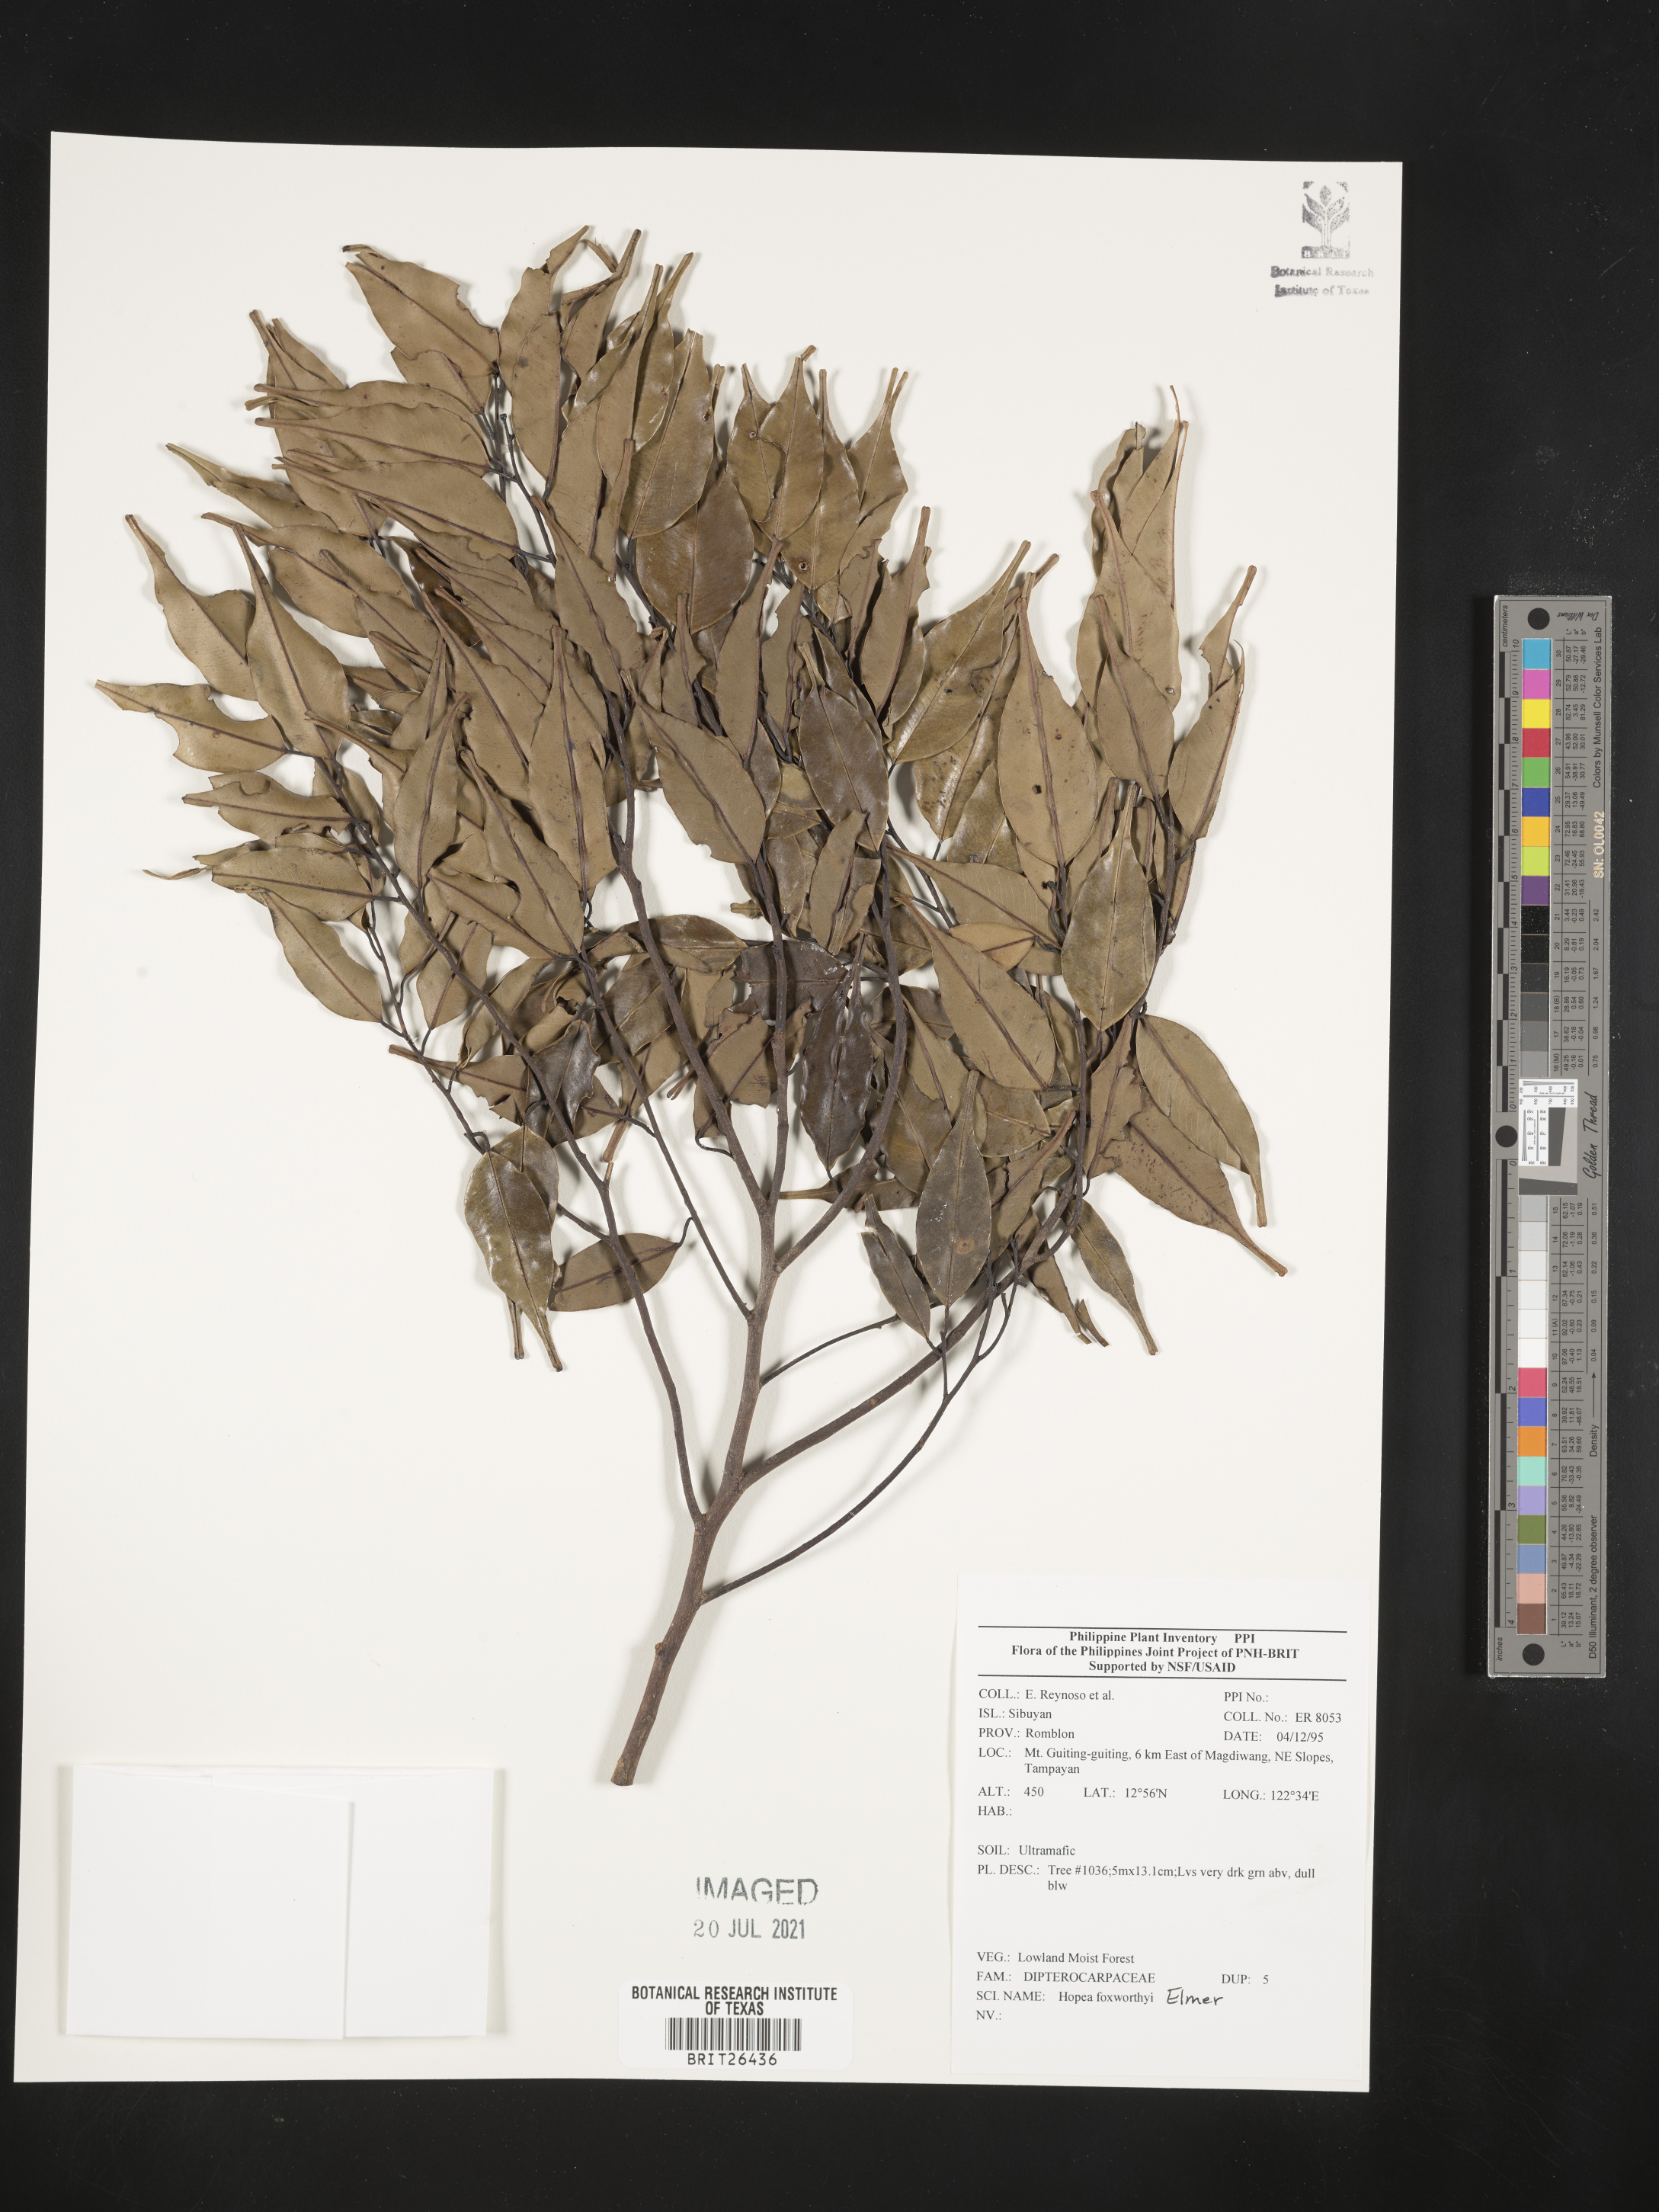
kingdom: Plantae
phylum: Tracheophyta
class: Magnoliopsida
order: Malvales
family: Dipterocarpaceae
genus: Hopea
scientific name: Hopea foxworthyi
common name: Dalingdingan
